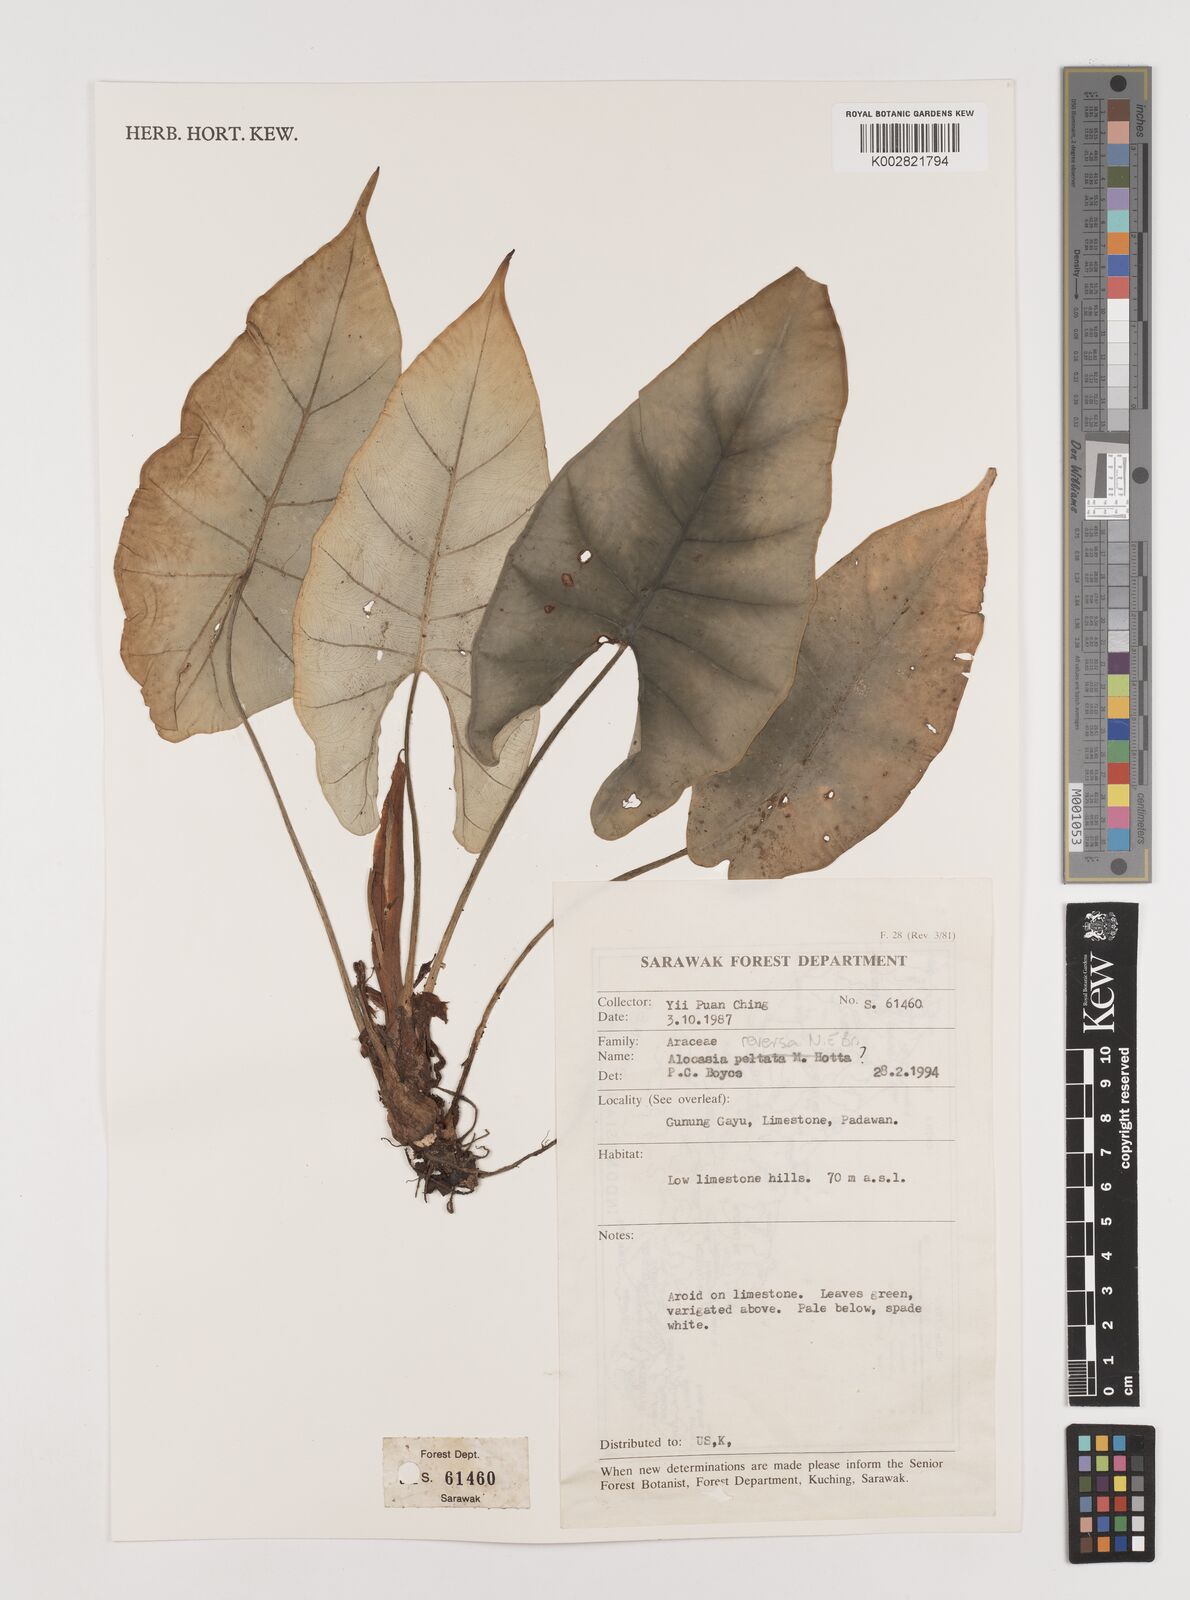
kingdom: Plantae
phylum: Tracheophyta
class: Liliopsida
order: Alismatales
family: Araceae
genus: Alocasia
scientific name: Alocasia reversa
